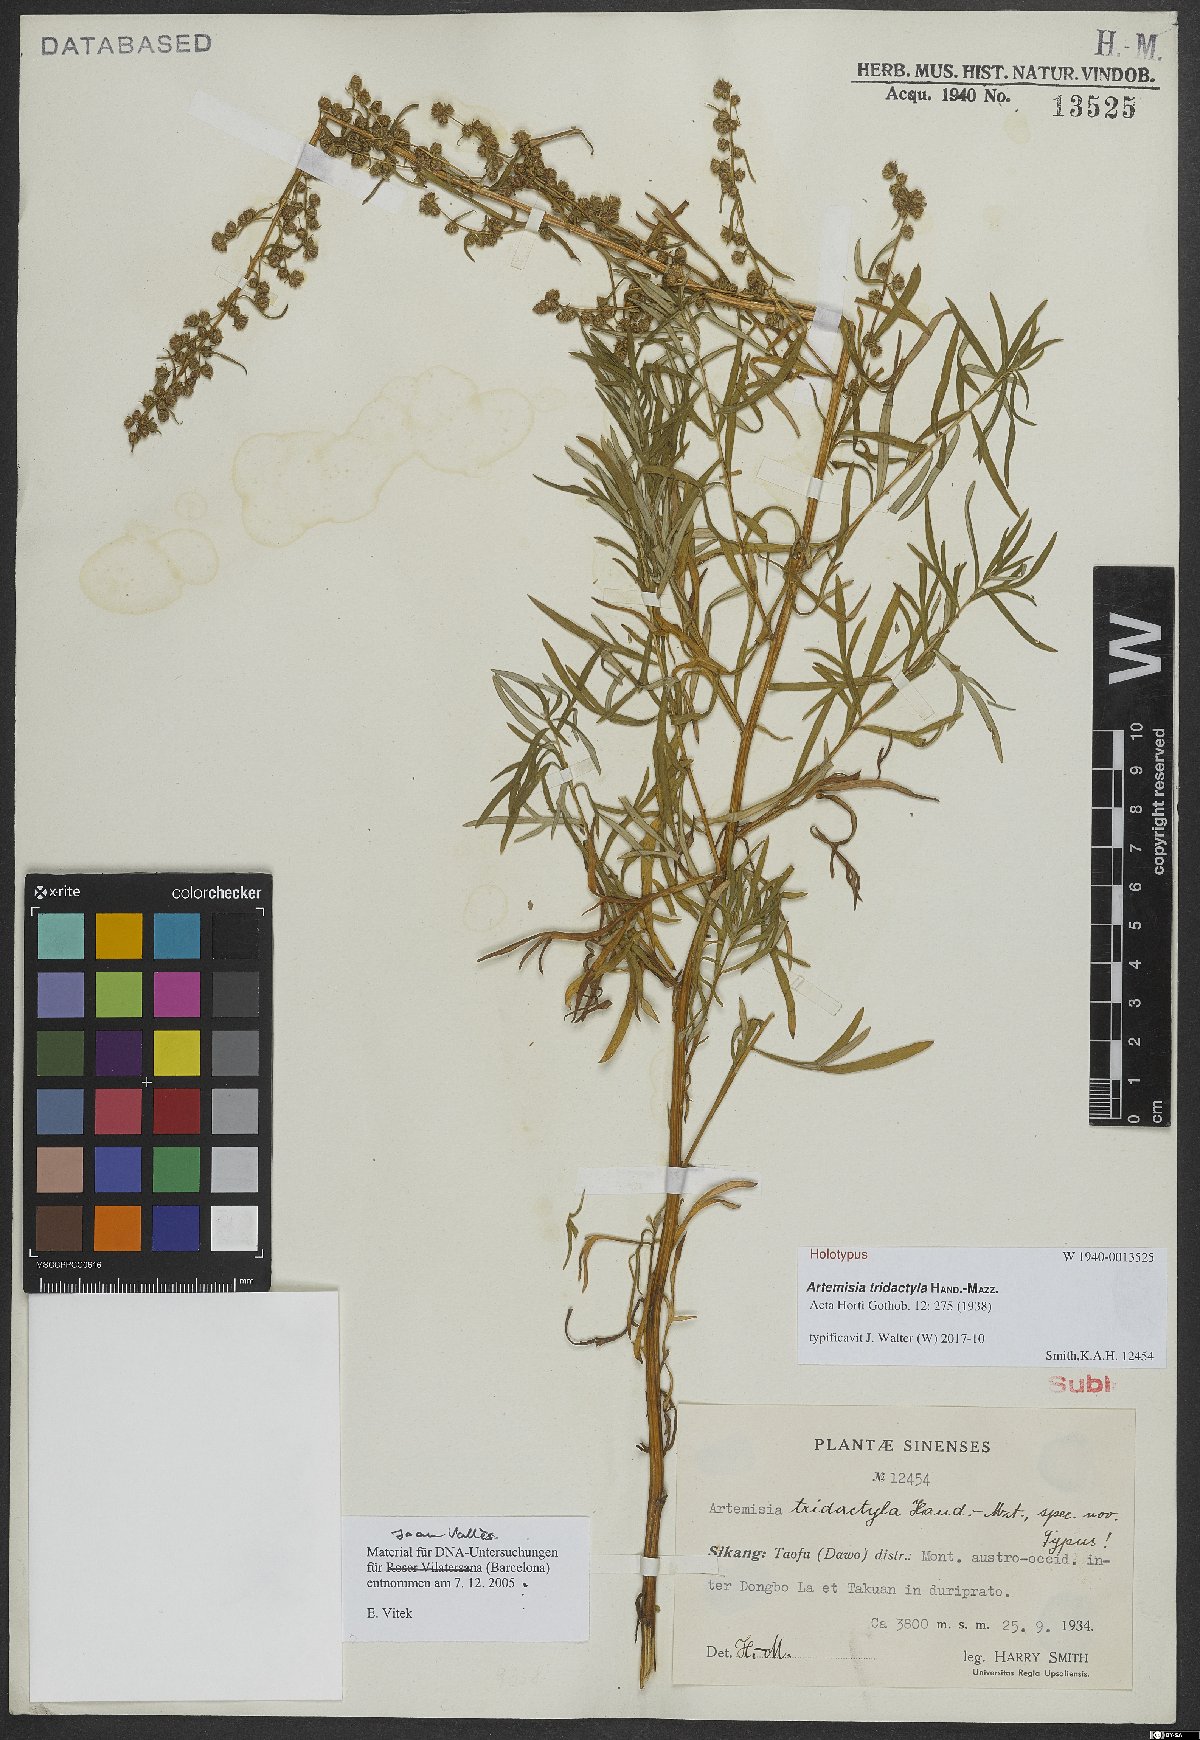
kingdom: Plantae
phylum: Tracheophyta
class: Magnoliopsida
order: Asterales
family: Asteraceae
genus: Artemisia
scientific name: Artemisia tridactyla
